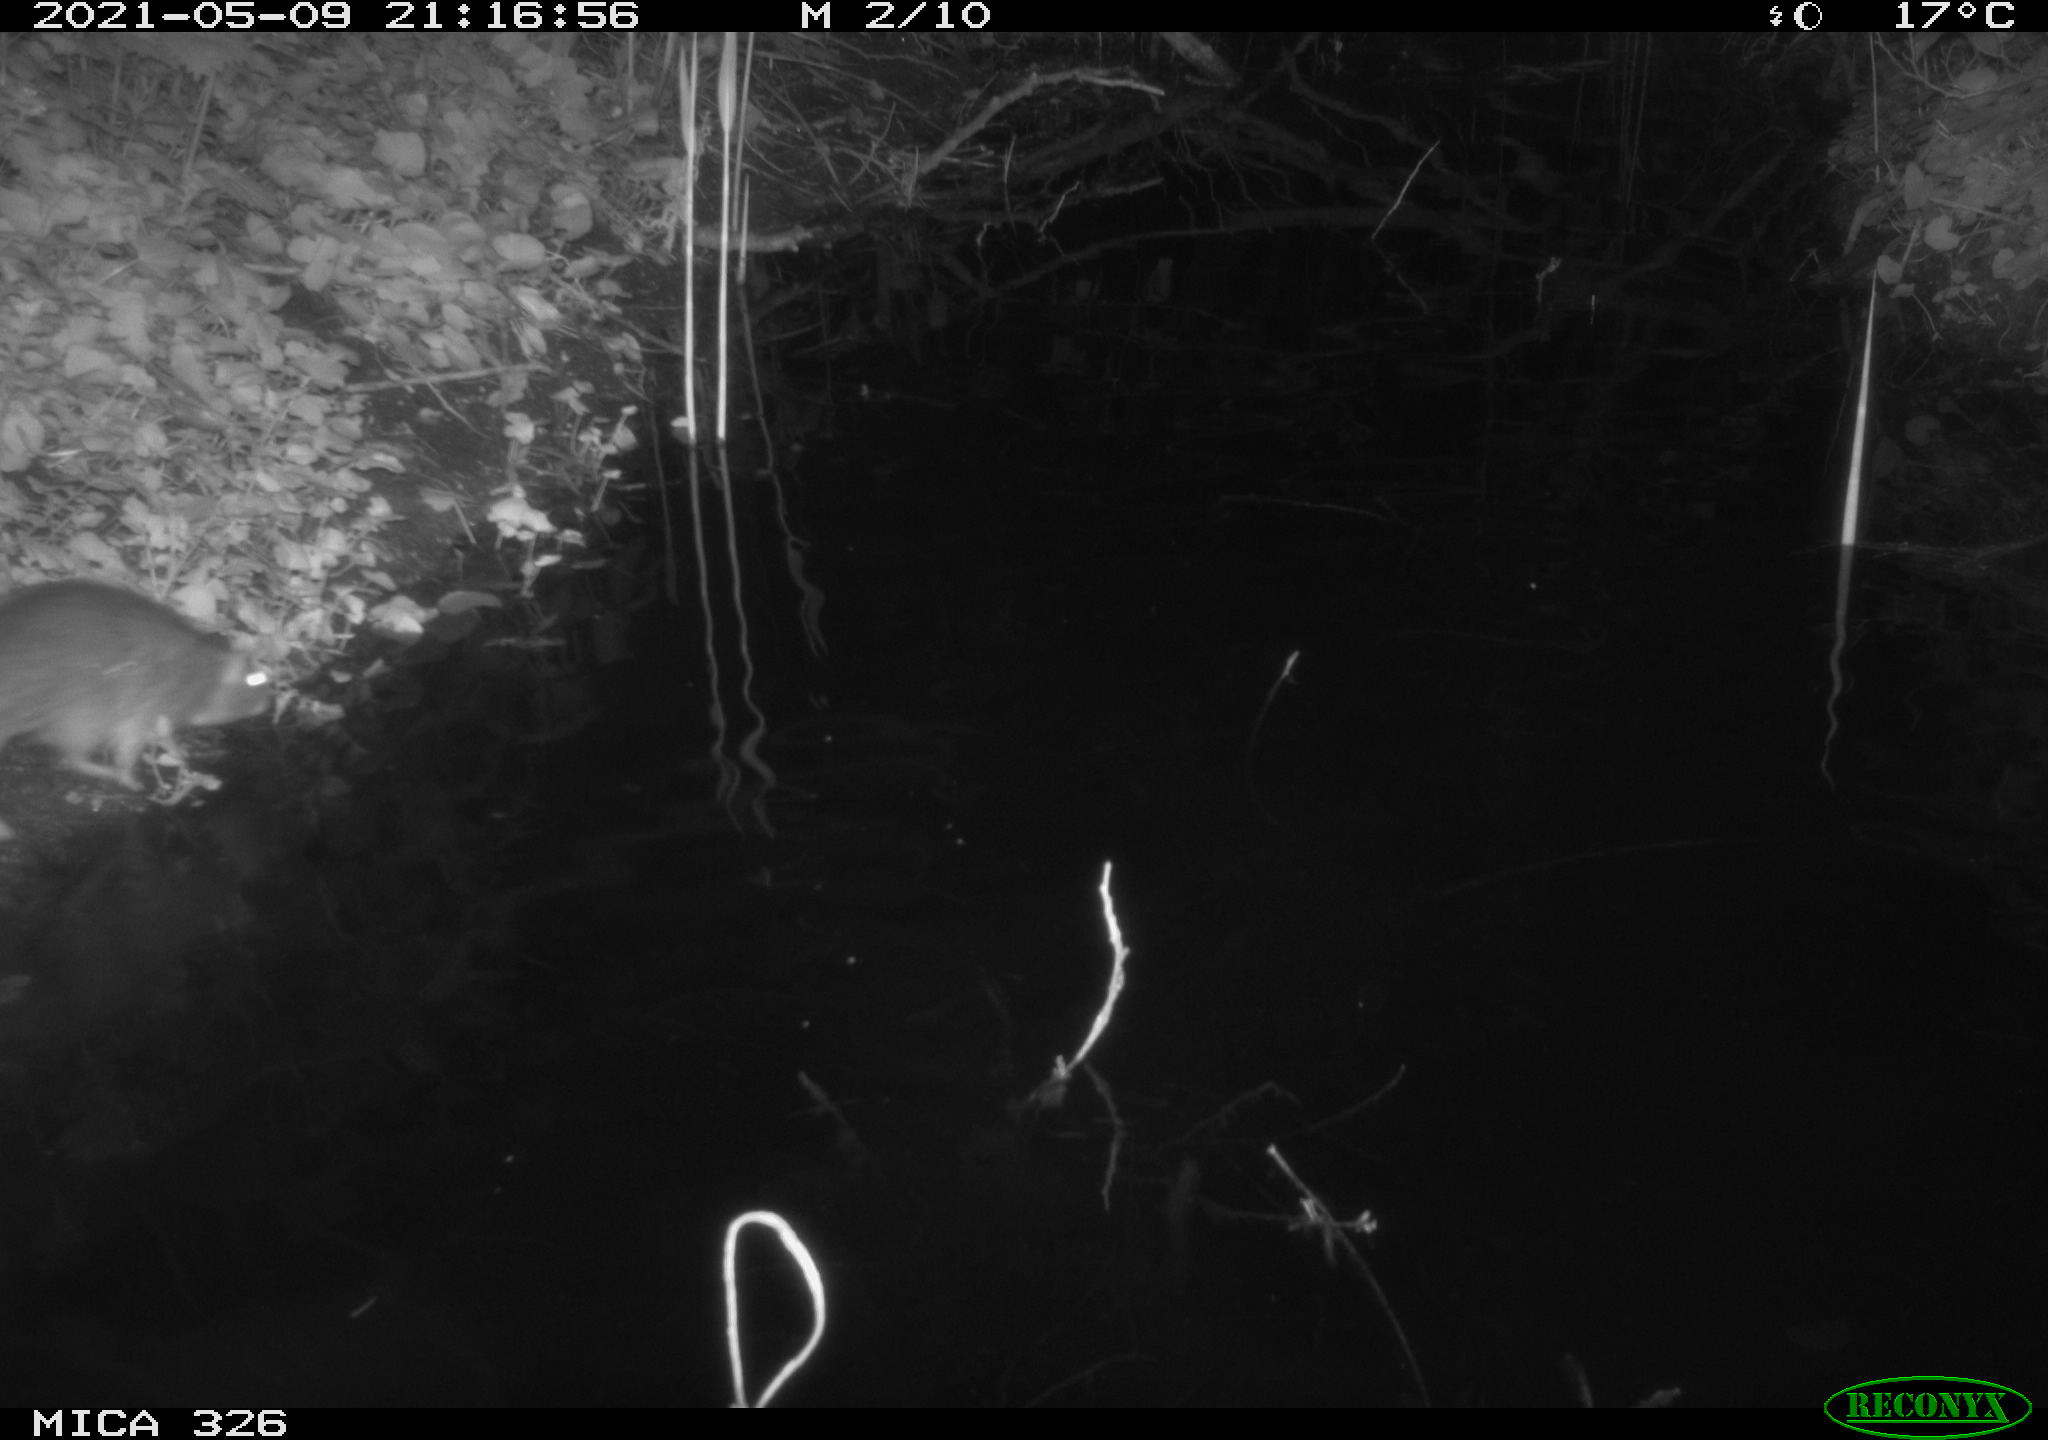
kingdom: Animalia
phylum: Chordata
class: Mammalia
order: Rodentia
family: Muridae
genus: Rattus
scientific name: Rattus norvegicus
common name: Brown rat
